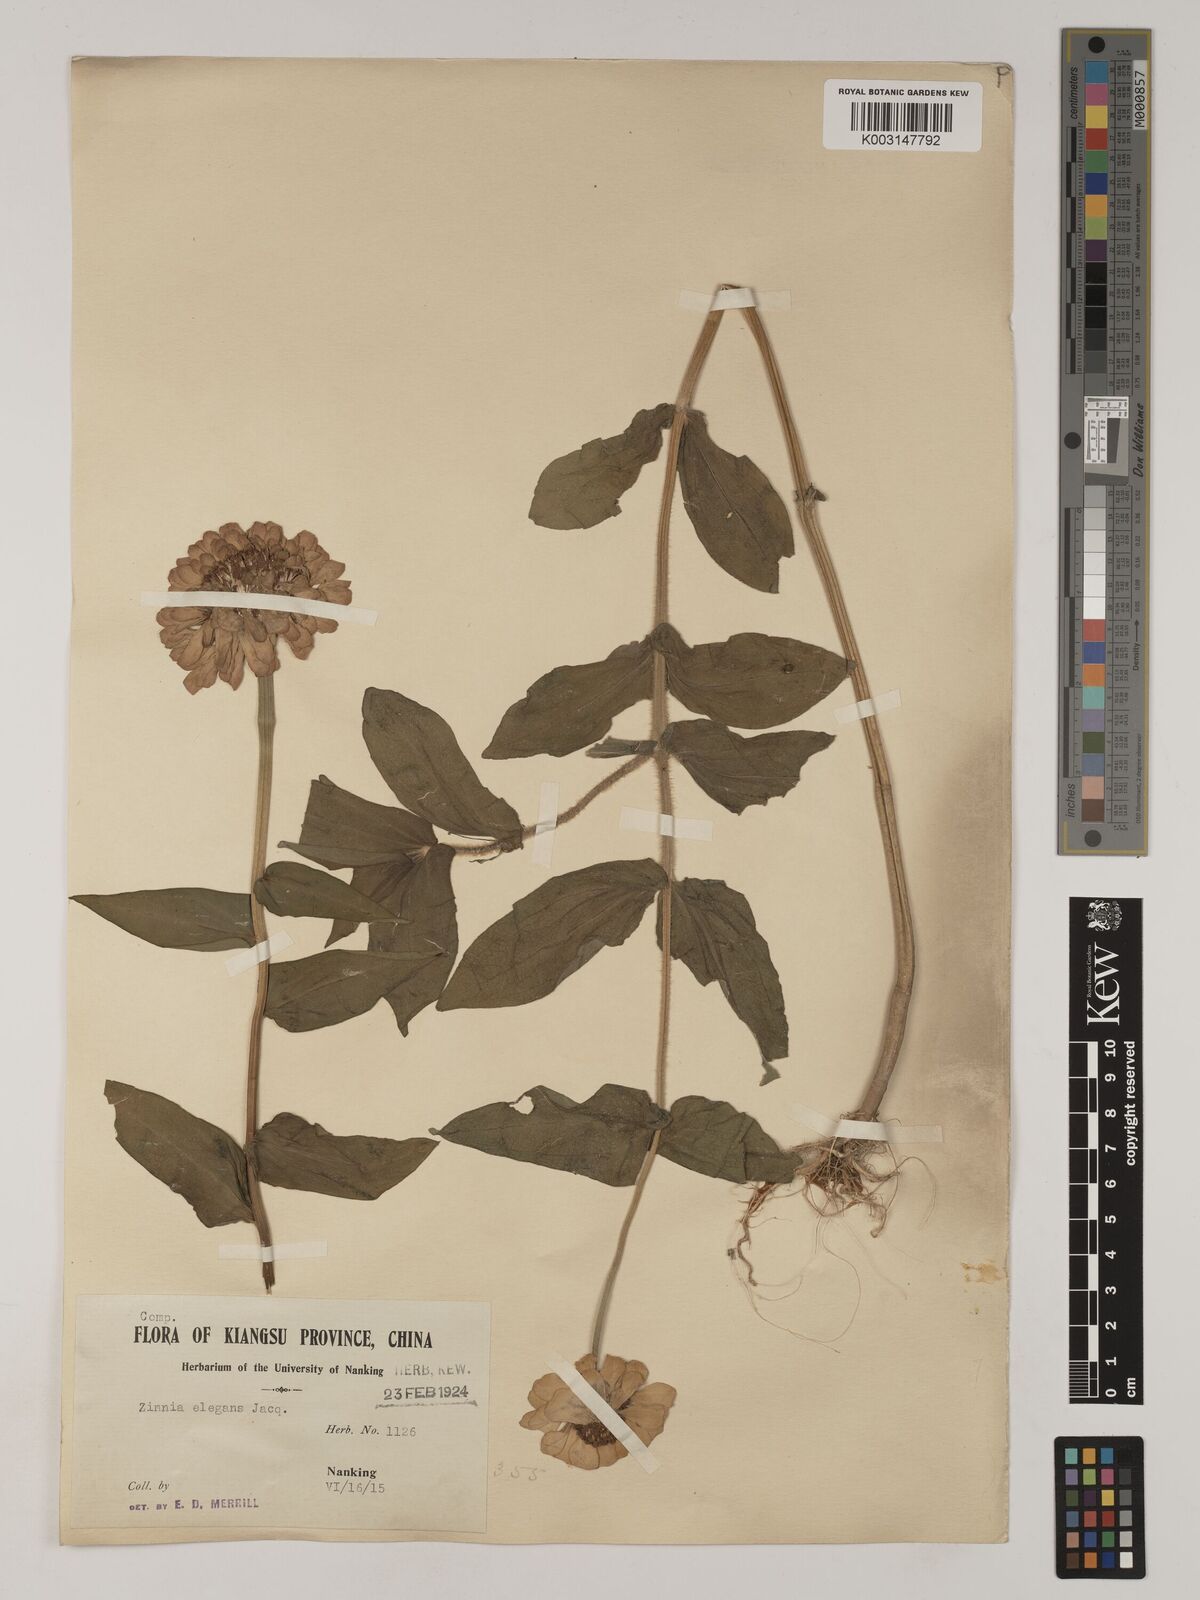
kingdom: Plantae
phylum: Tracheophyta
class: Magnoliopsida
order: Asterales
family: Asteraceae
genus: Zinnia
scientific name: Zinnia elegans
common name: Youth-and-age
